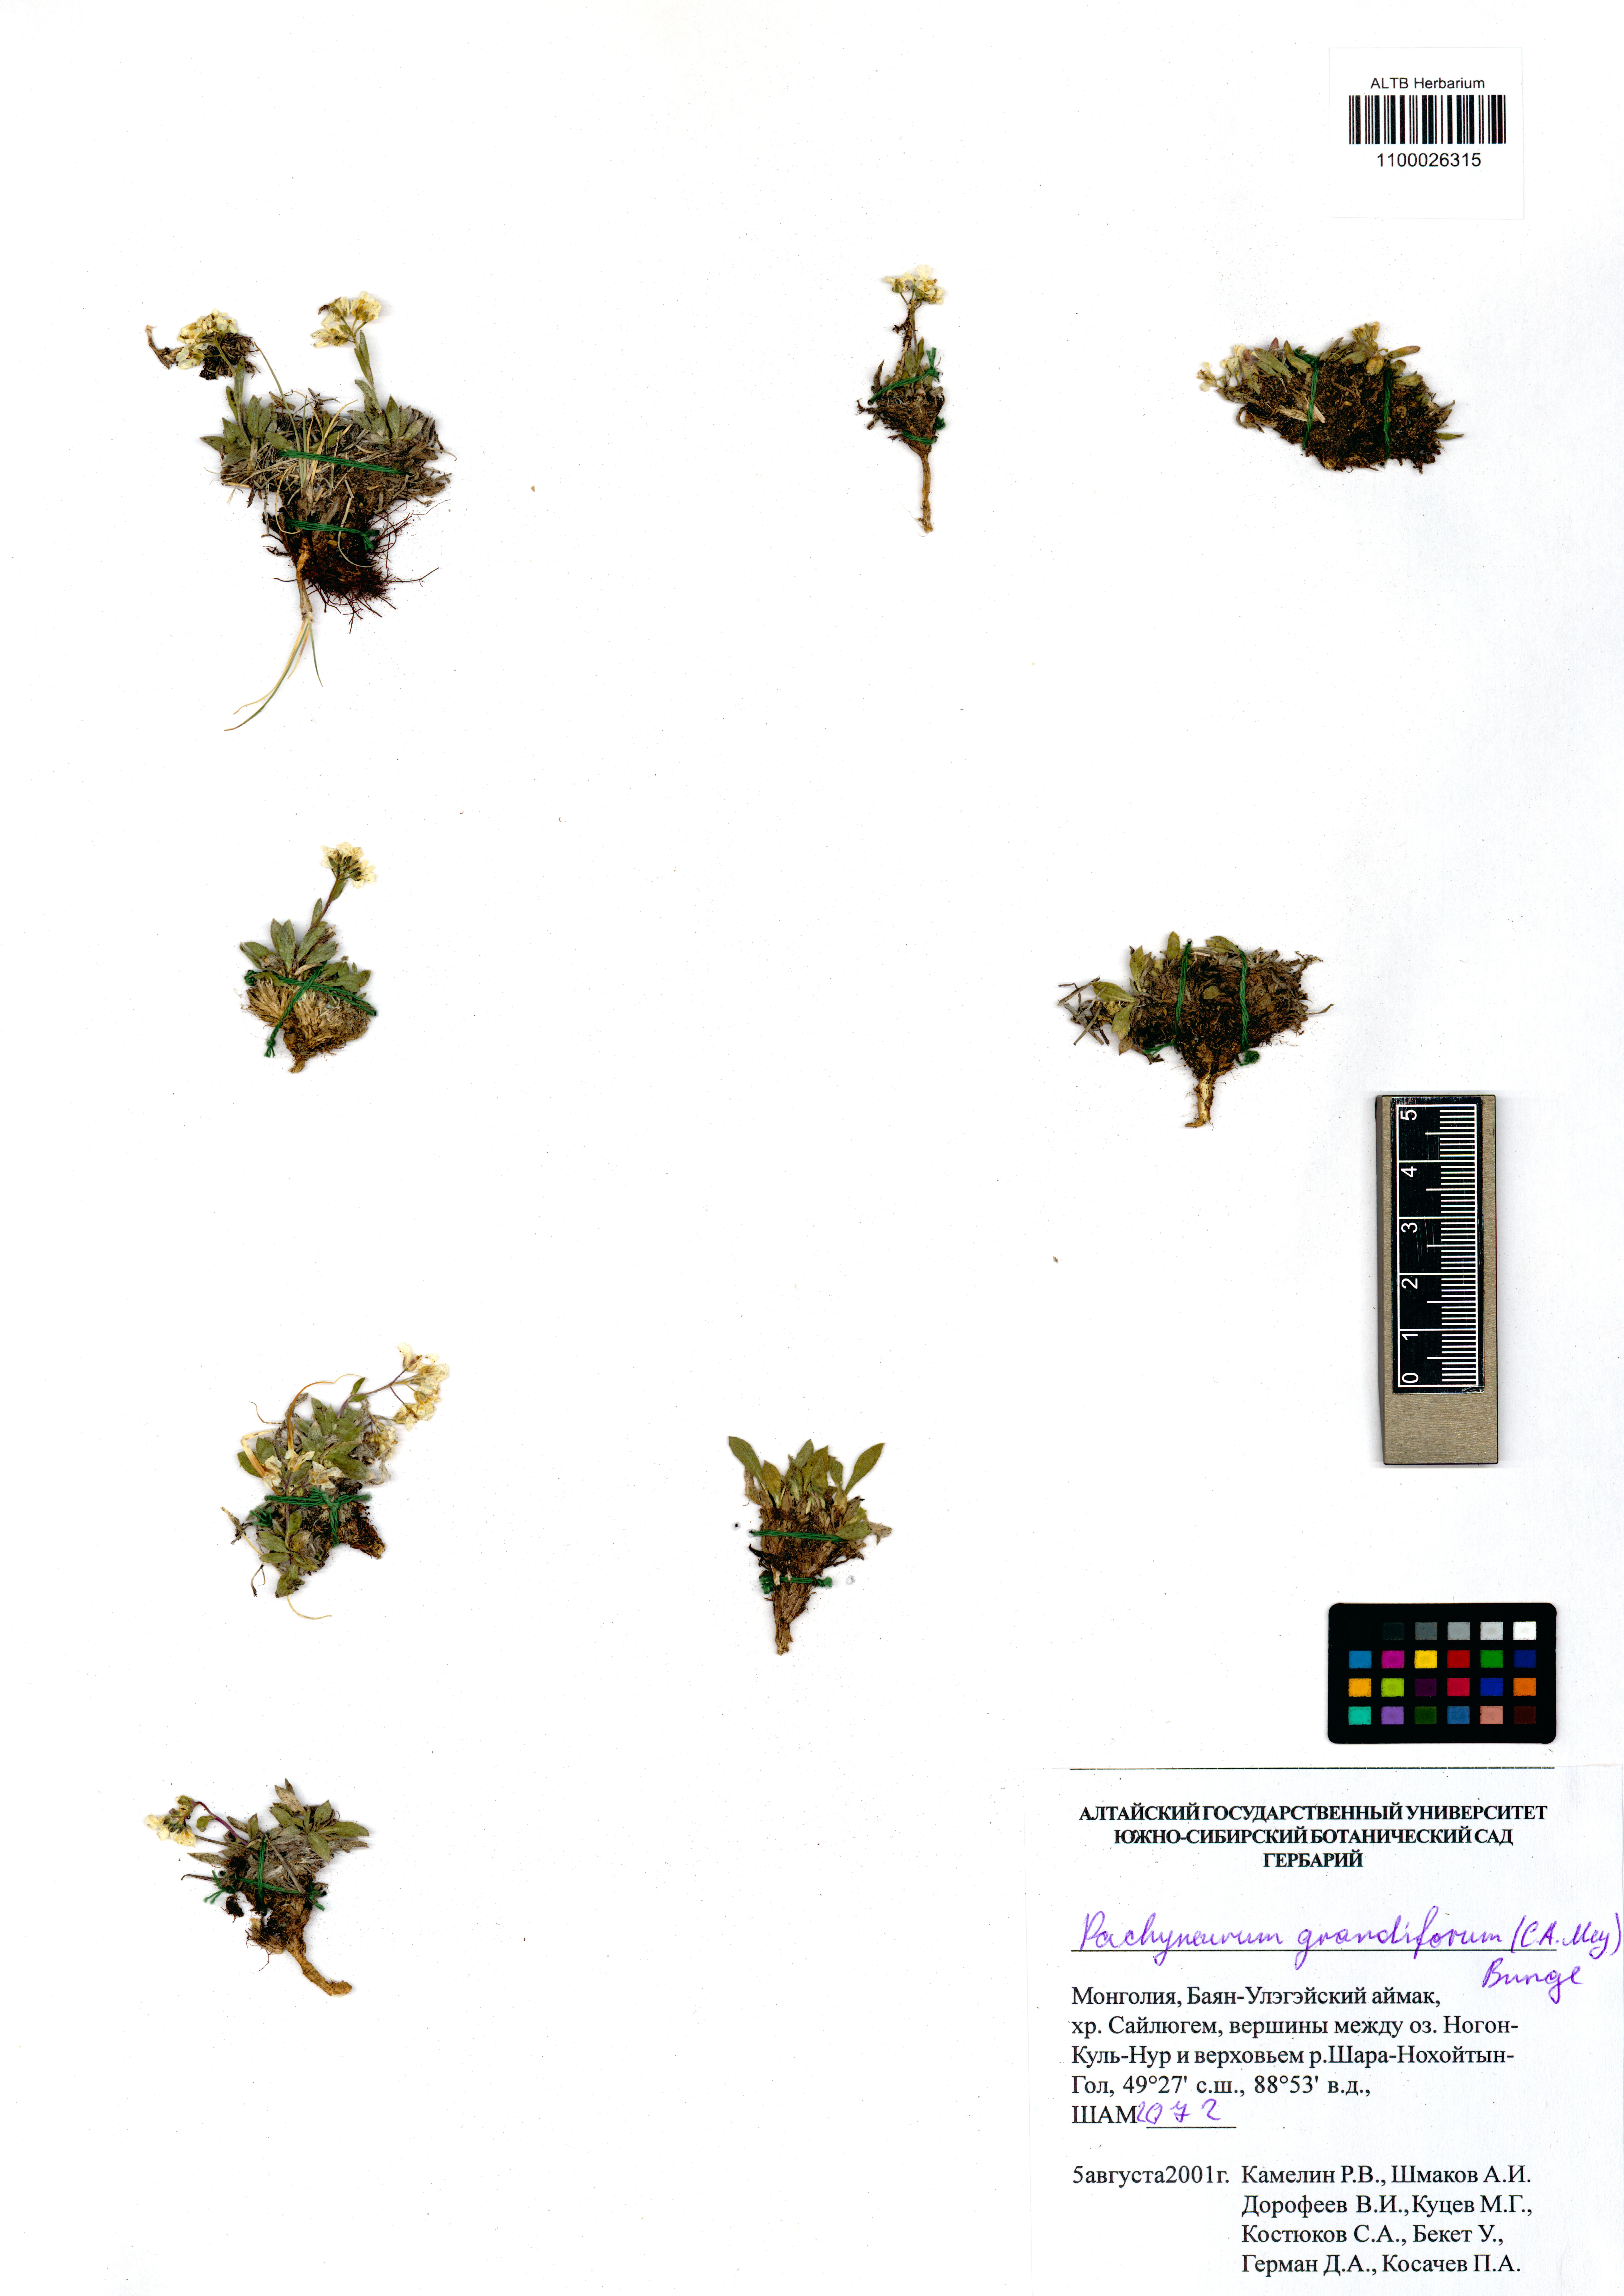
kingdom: Plantae
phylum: Tracheophyta
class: Magnoliopsida
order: Brassicales
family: Brassicaceae
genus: Pachyneurum
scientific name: Pachyneurum grandiflorum
